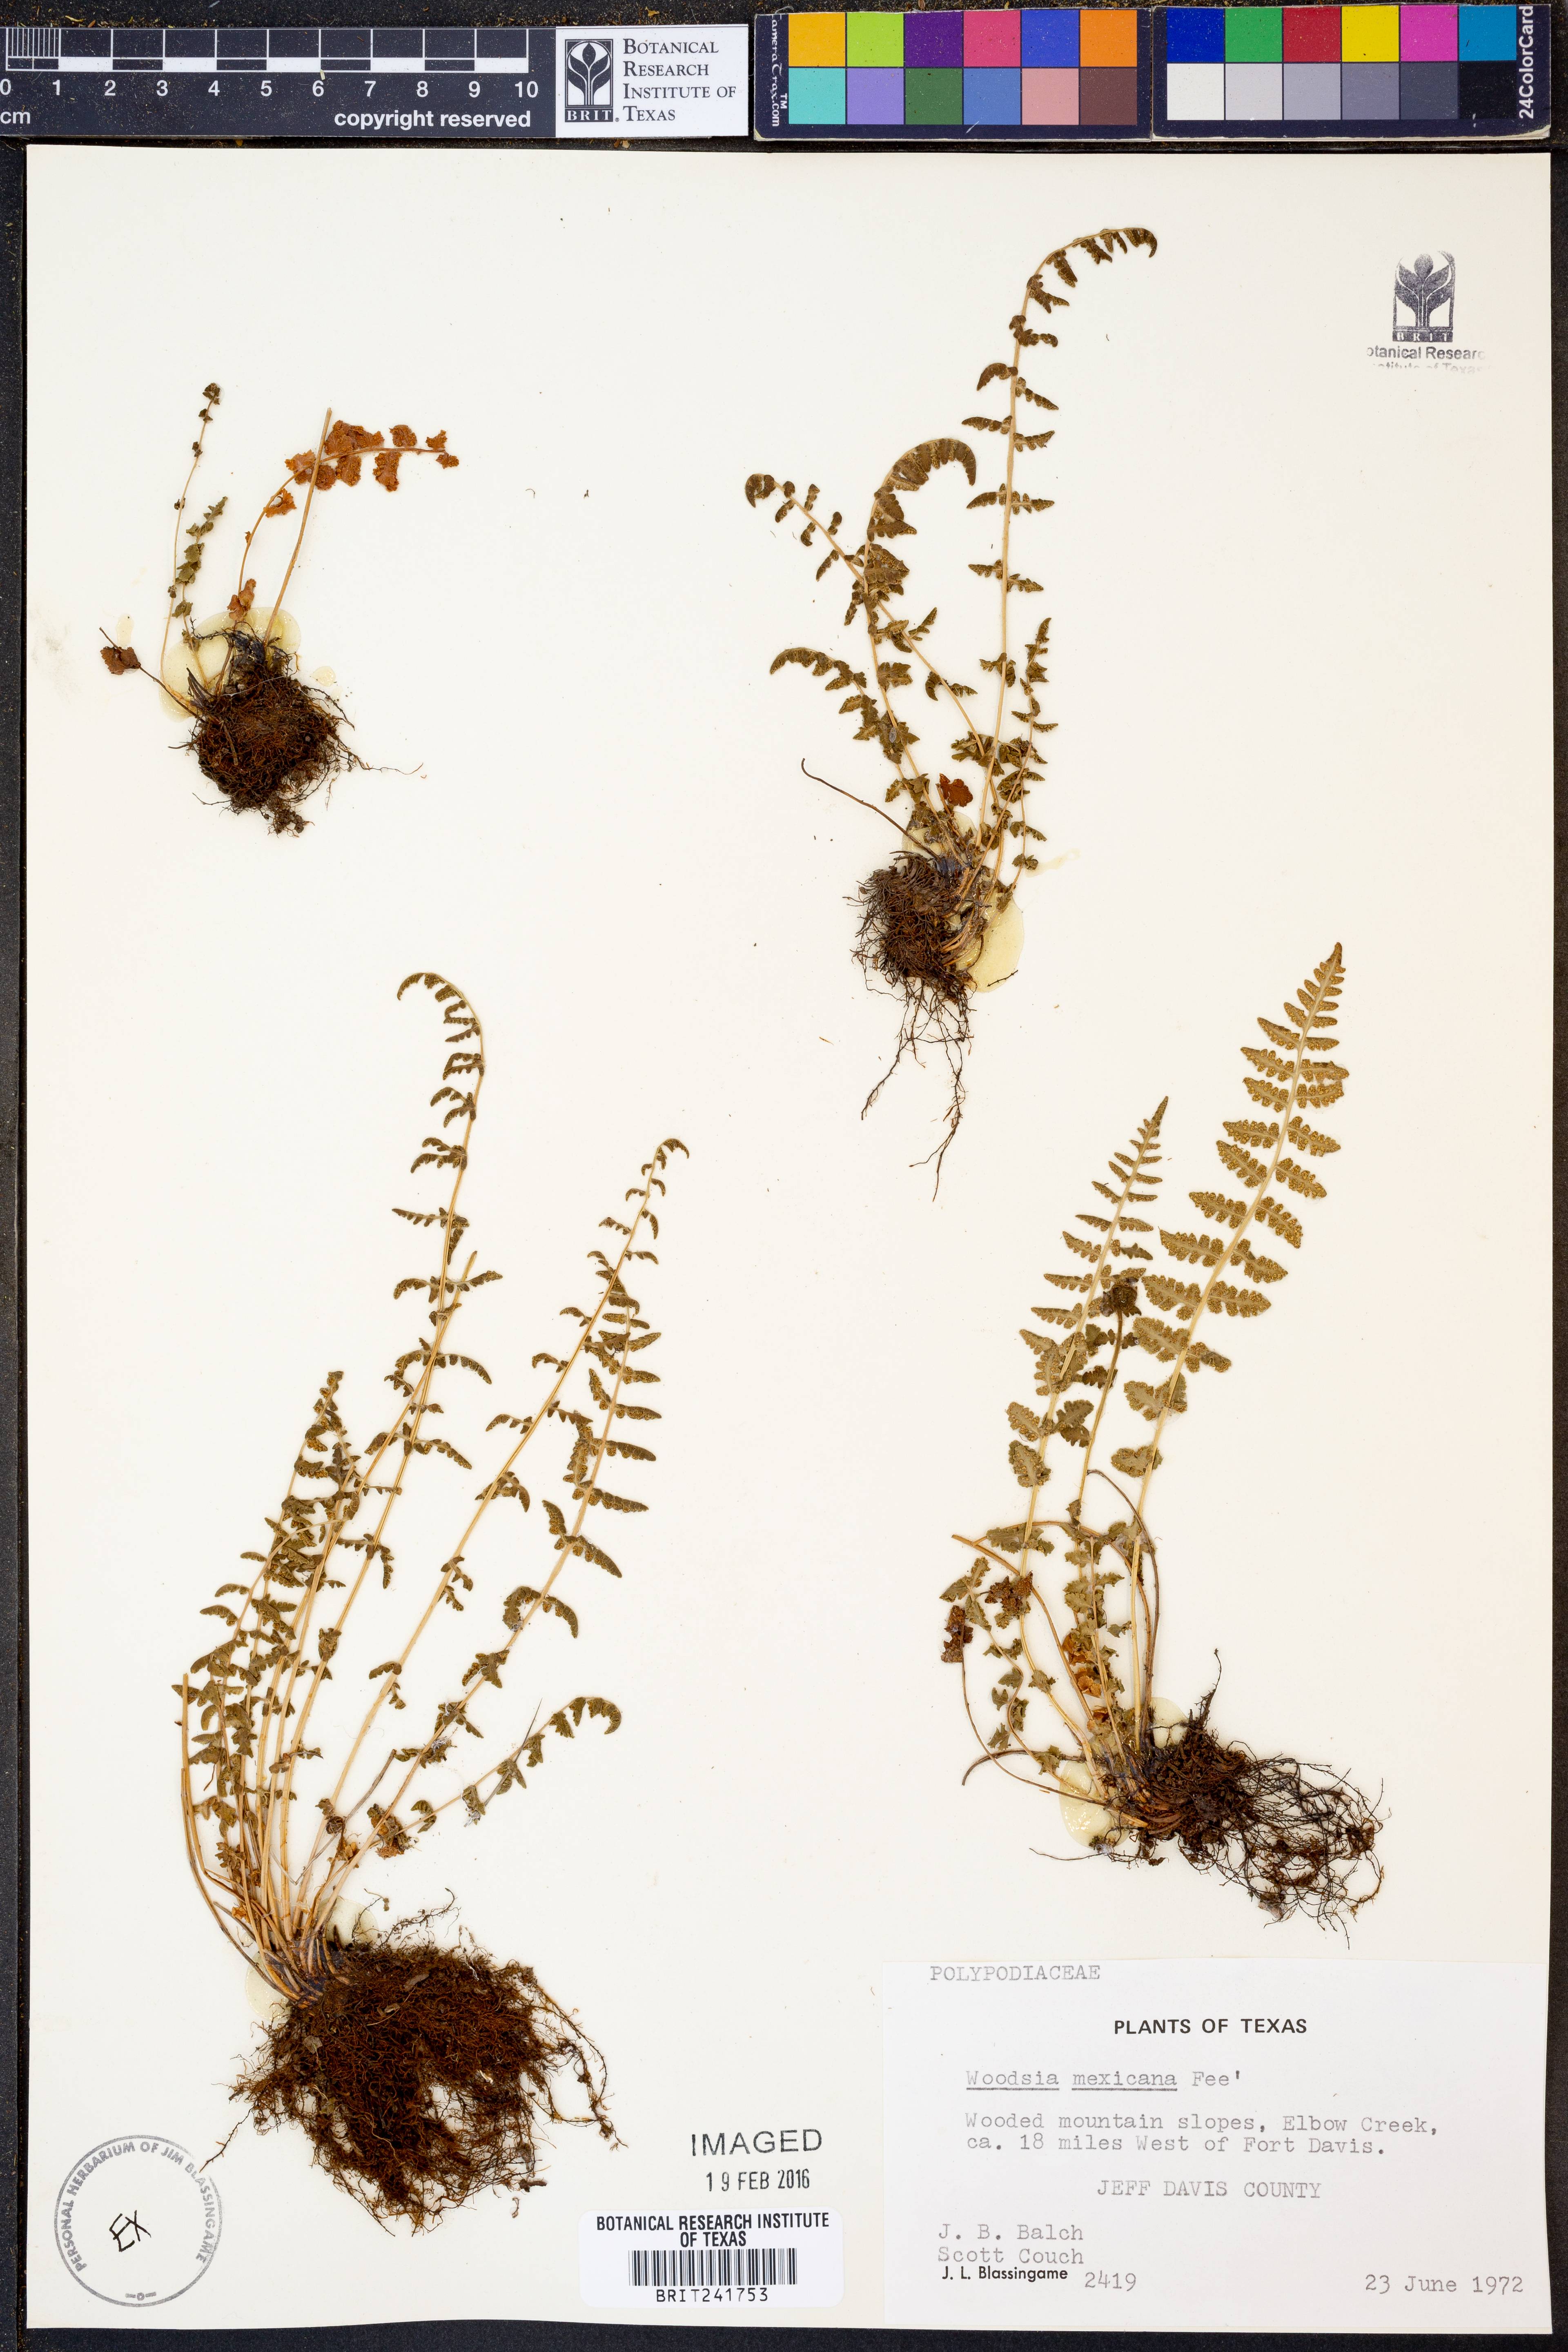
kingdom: Plantae
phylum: Tracheophyta
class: Polypodiopsida
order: Polypodiales
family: Woodsiaceae
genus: Physematium
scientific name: Physematium mexicanum
